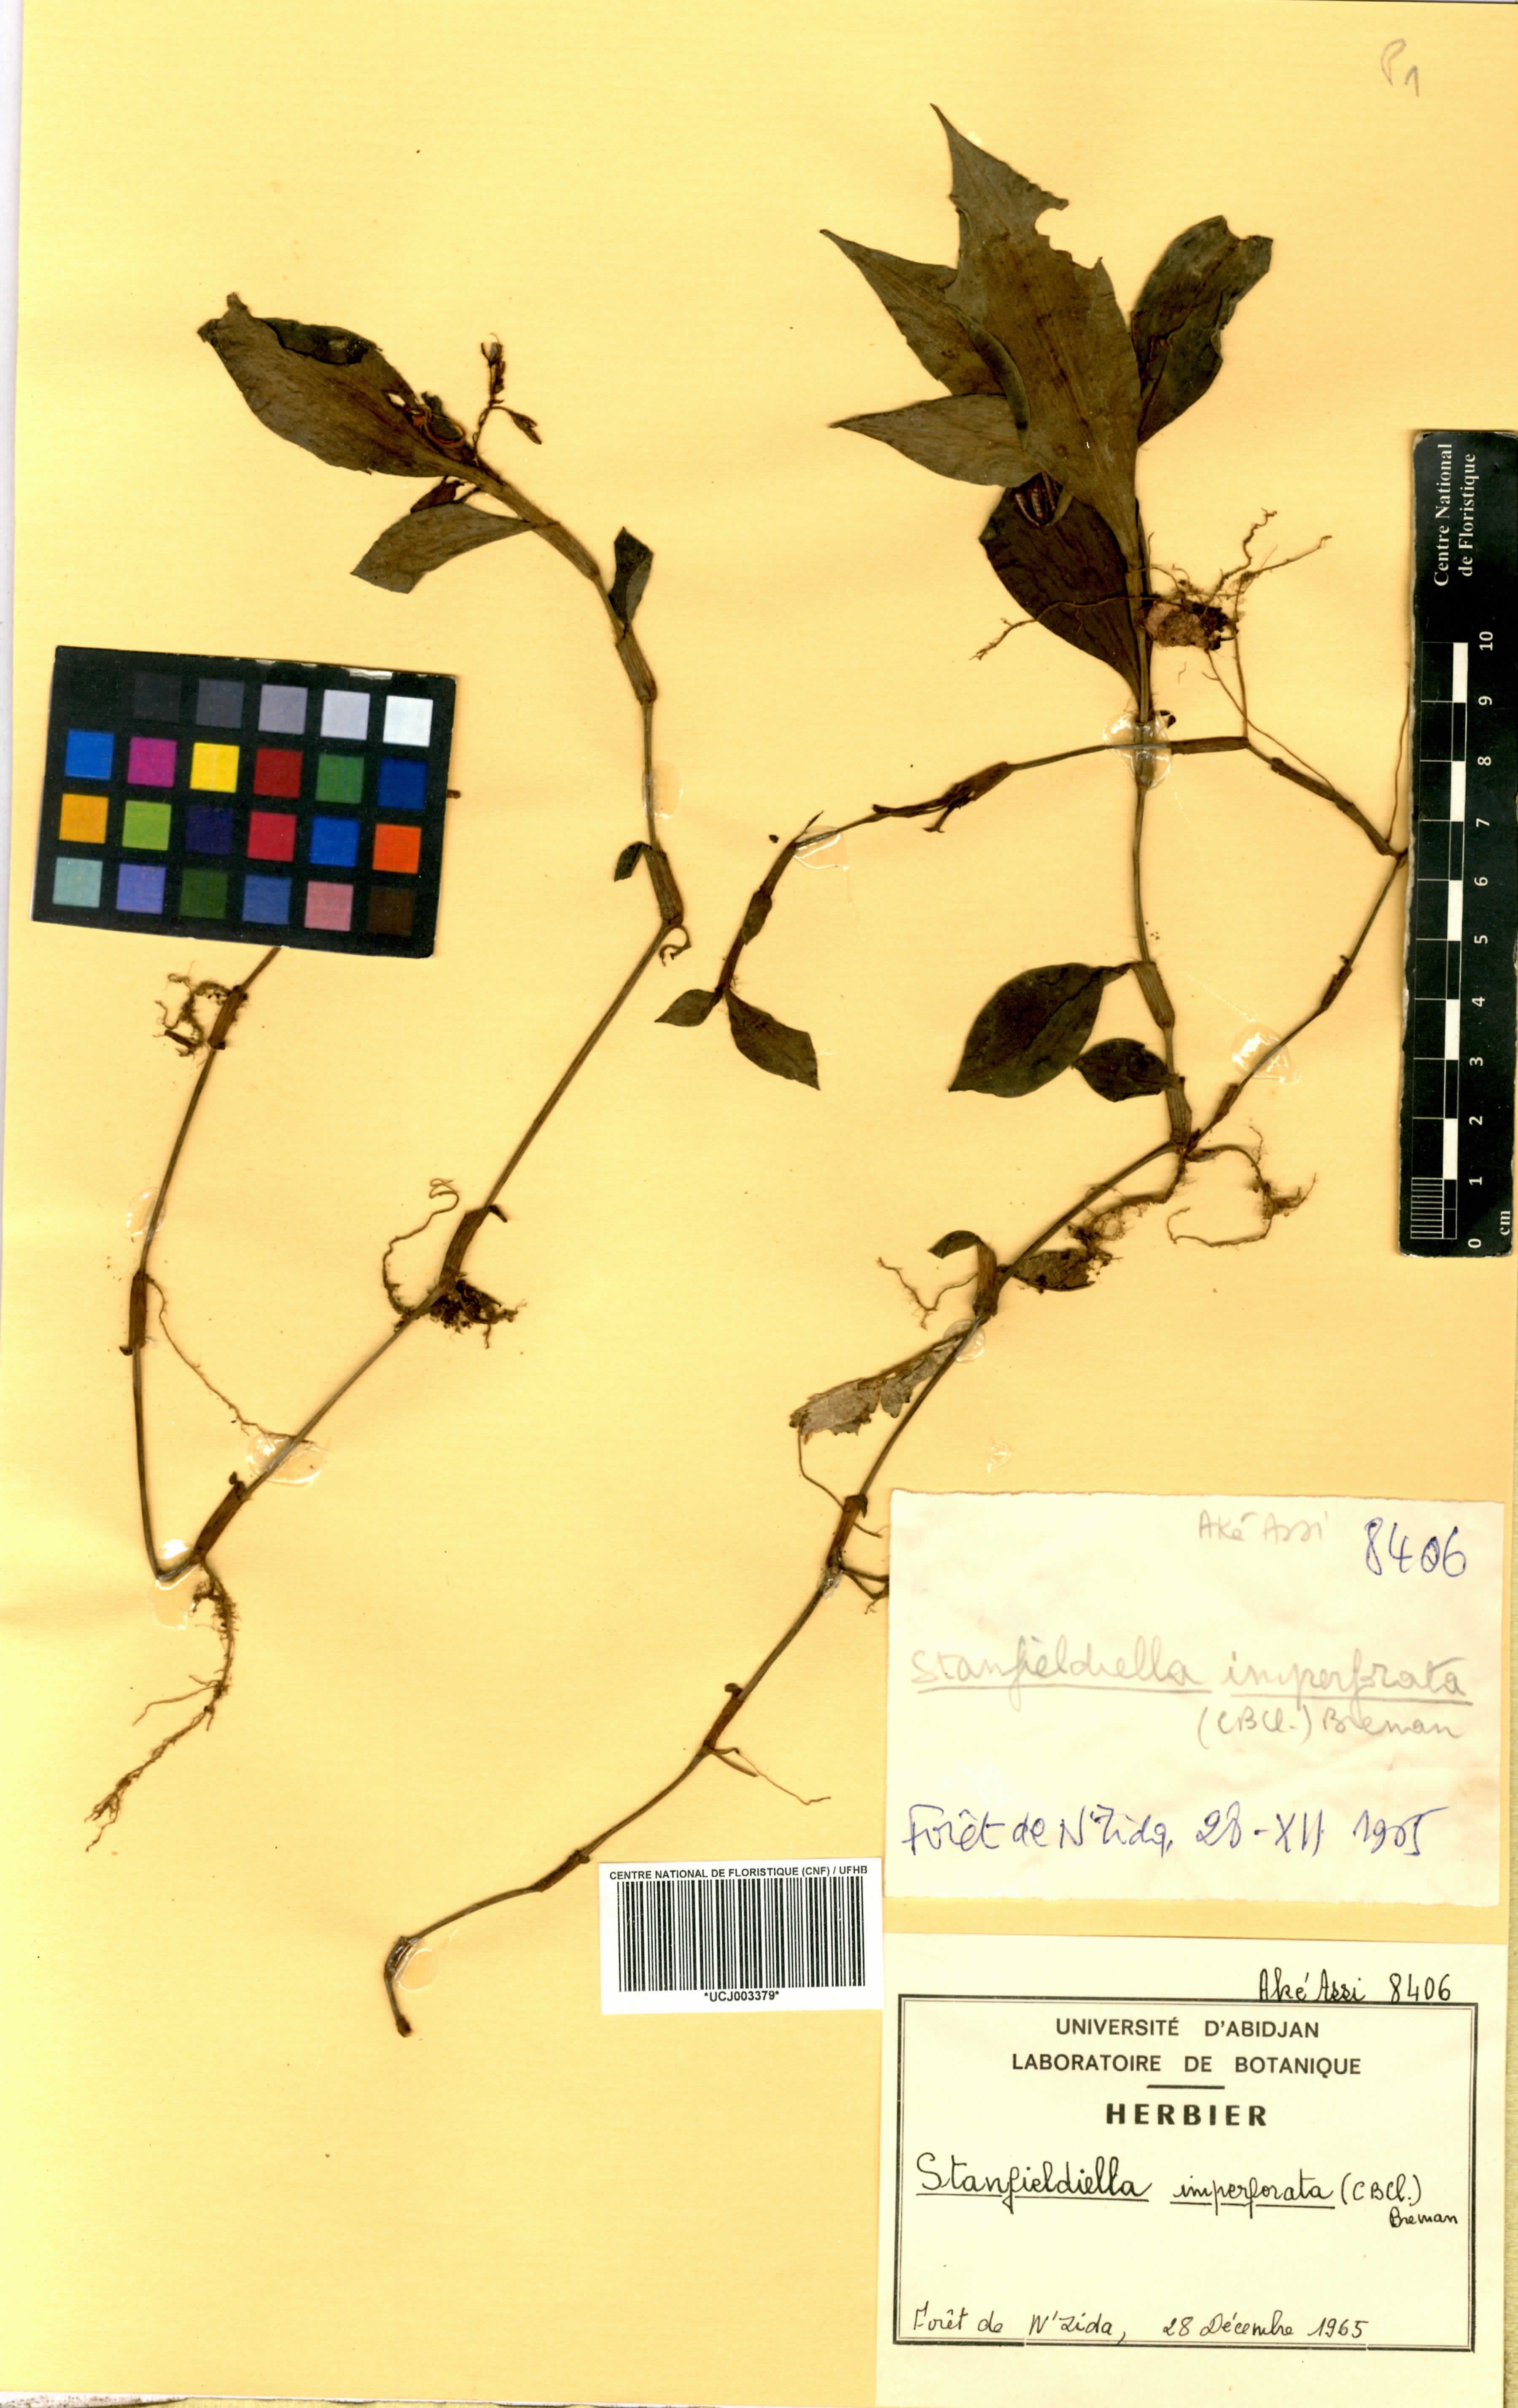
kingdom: Plantae
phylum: Tracheophyta
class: Liliopsida
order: Commelinales
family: Commelinaceae
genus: Stanfieldiella
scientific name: Stanfieldiella imperforata
